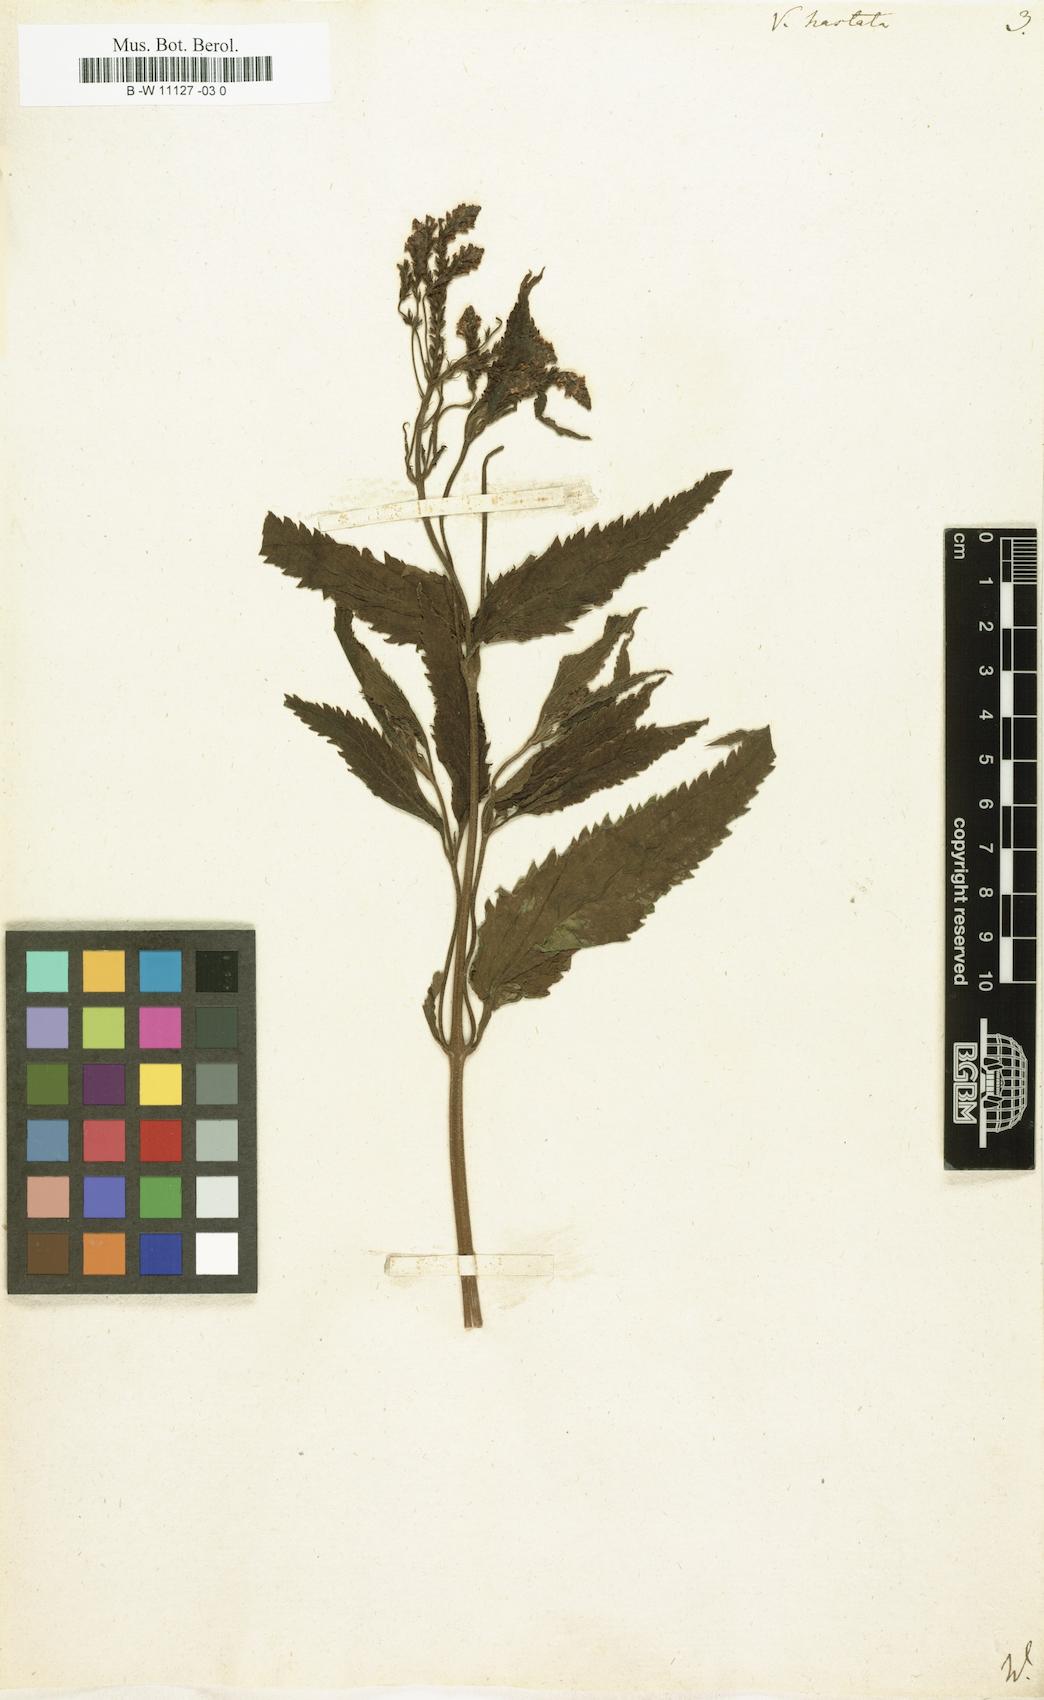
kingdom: Plantae
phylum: Tracheophyta
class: Magnoliopsida
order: Lamiales
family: Verbenaceae
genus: Verbena
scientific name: Verbena hastata
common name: American blue vervain
